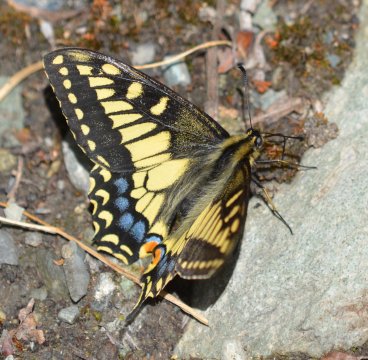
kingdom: Animalia
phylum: Arthropoda
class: Insecta
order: Lepidoptera
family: Papilionidae
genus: Papilio
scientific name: Papilio machaon
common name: Old World Swallowtail
